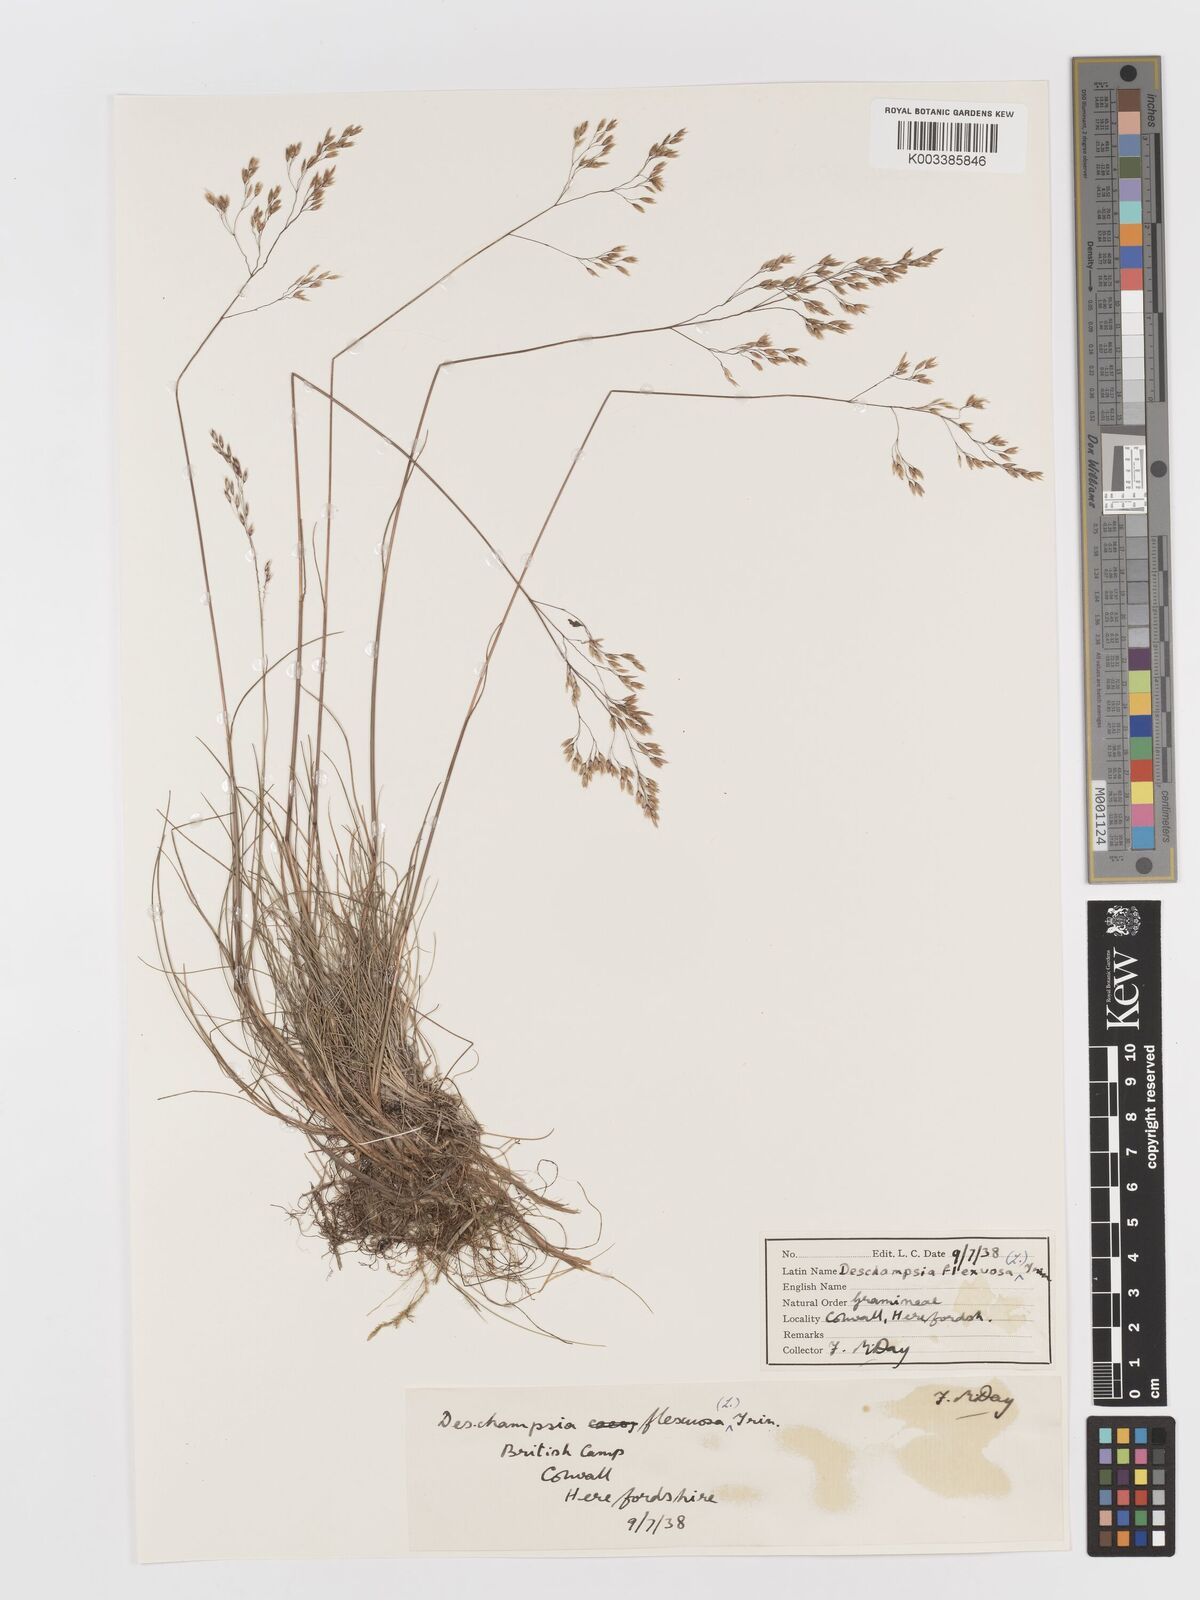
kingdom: Plantae
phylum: Tracheophyta
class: Liliopsida
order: Poales
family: Poaceae
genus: Avenella
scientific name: Avenella flexuosa
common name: Wavy hairgrass
